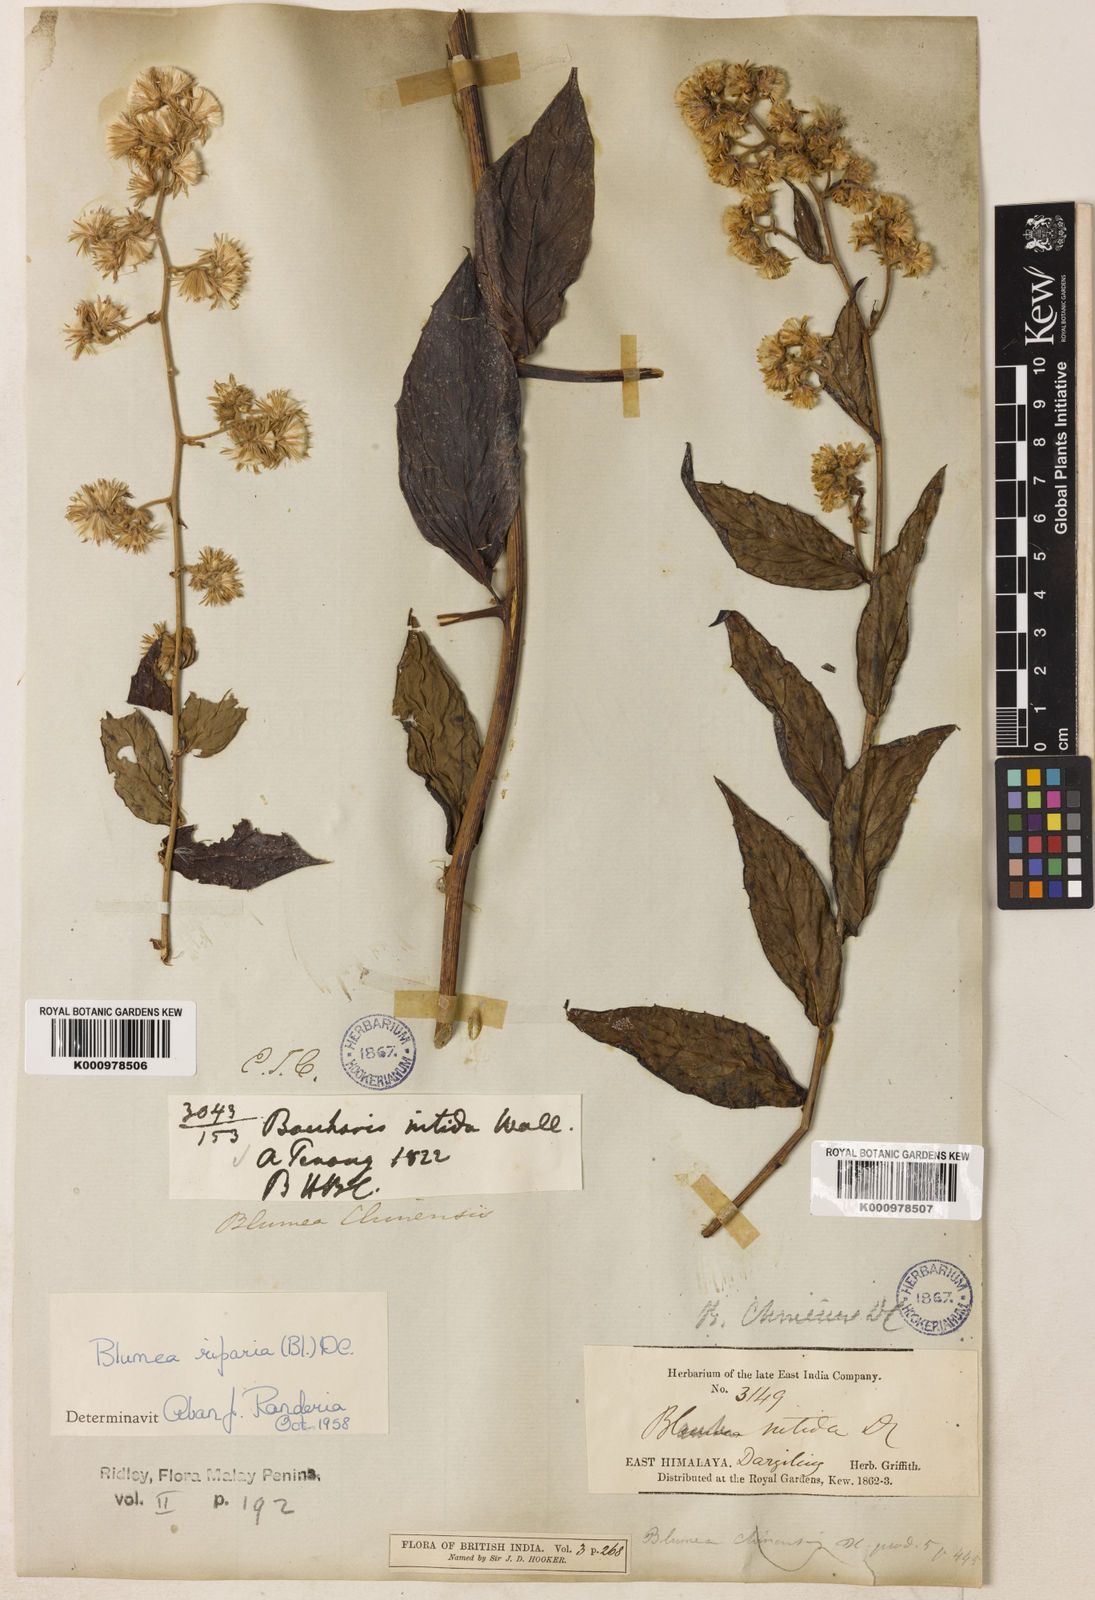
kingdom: Plantae
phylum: Tracheophyta
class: Magnoliopsida
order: Asterales
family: Asteraceae
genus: Blumea
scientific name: Blumea riparia
